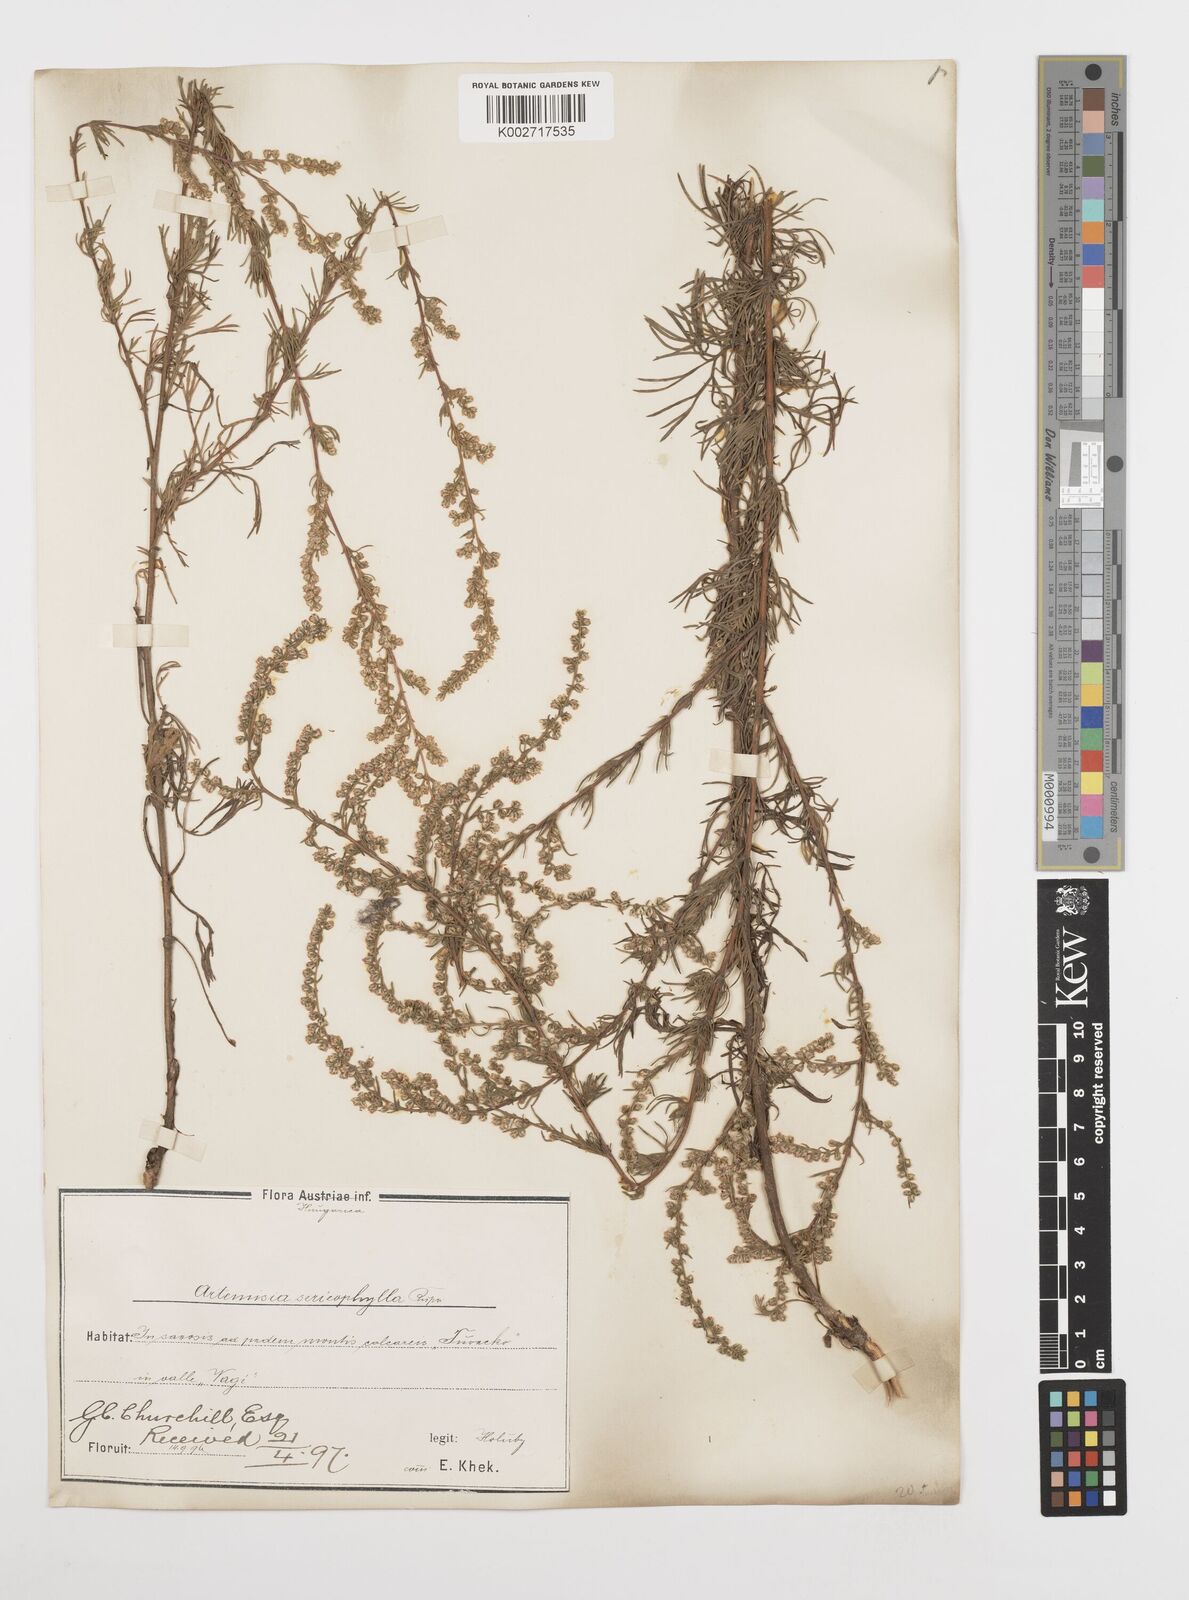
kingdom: Plantae
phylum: Tracheophyta
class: Magnoliopsida
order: Asterales
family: Asteraceae
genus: Artemisia
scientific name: Artemisia marschalliana
